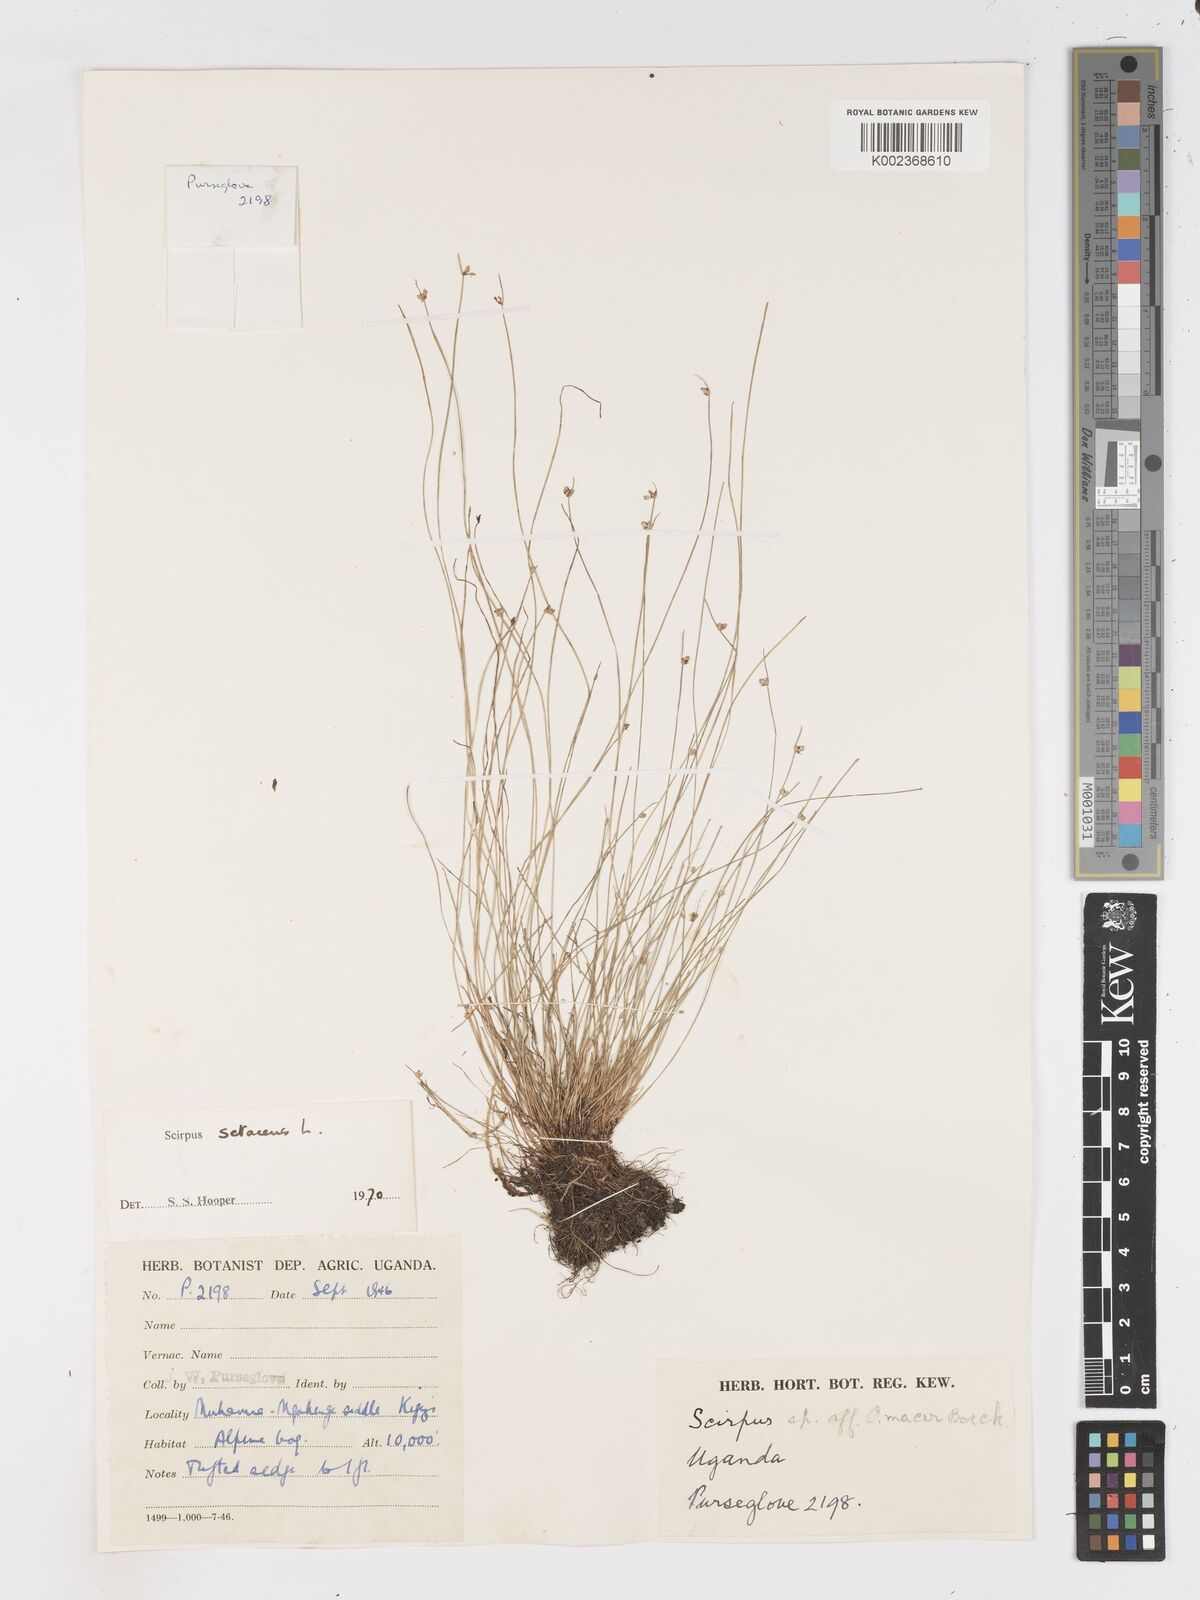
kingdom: Plantae
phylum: Tracheophyta
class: Liliopsida
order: Poales
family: Cyperaceae
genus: Isolepis
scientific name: Isolepis setacea
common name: Bristle club-rush
